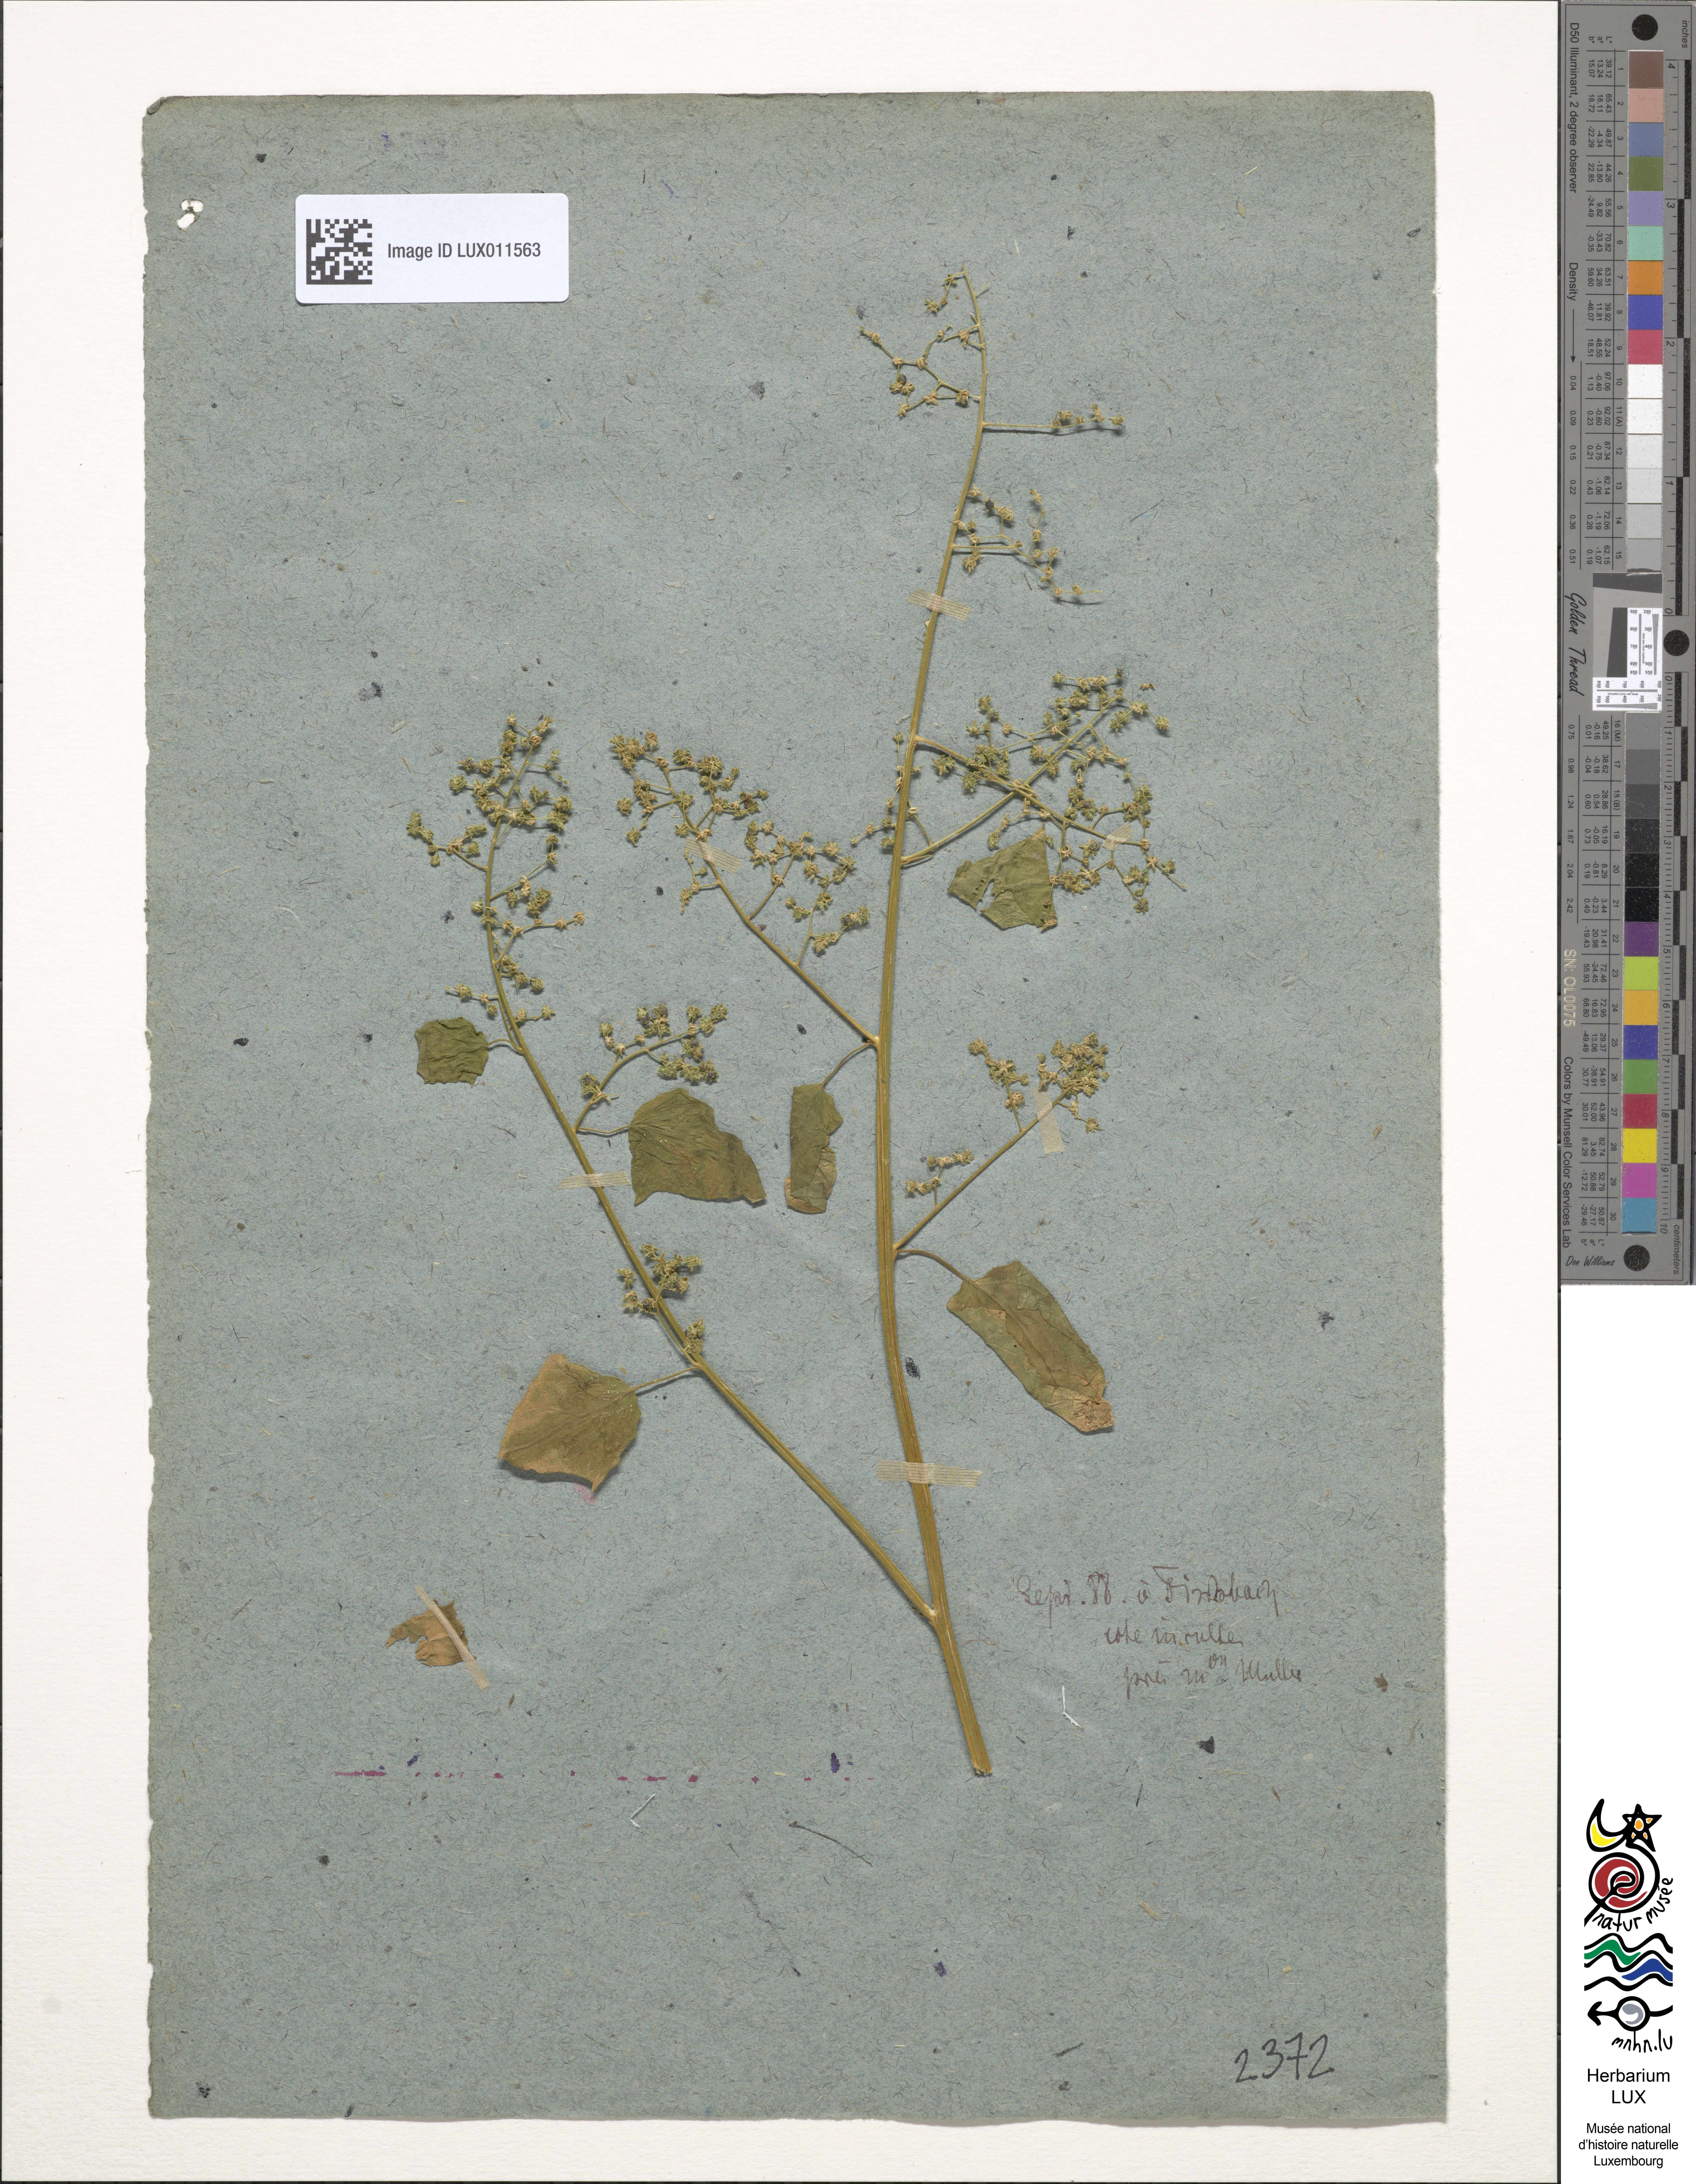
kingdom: Plantae
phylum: Tracheophyta
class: Magnoliopsida
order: Caryophyllales
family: Amaranthaceae
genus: Chenopodiastrum
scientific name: Chenopodiastrum hybridum
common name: Mapleleaf goosefoot
